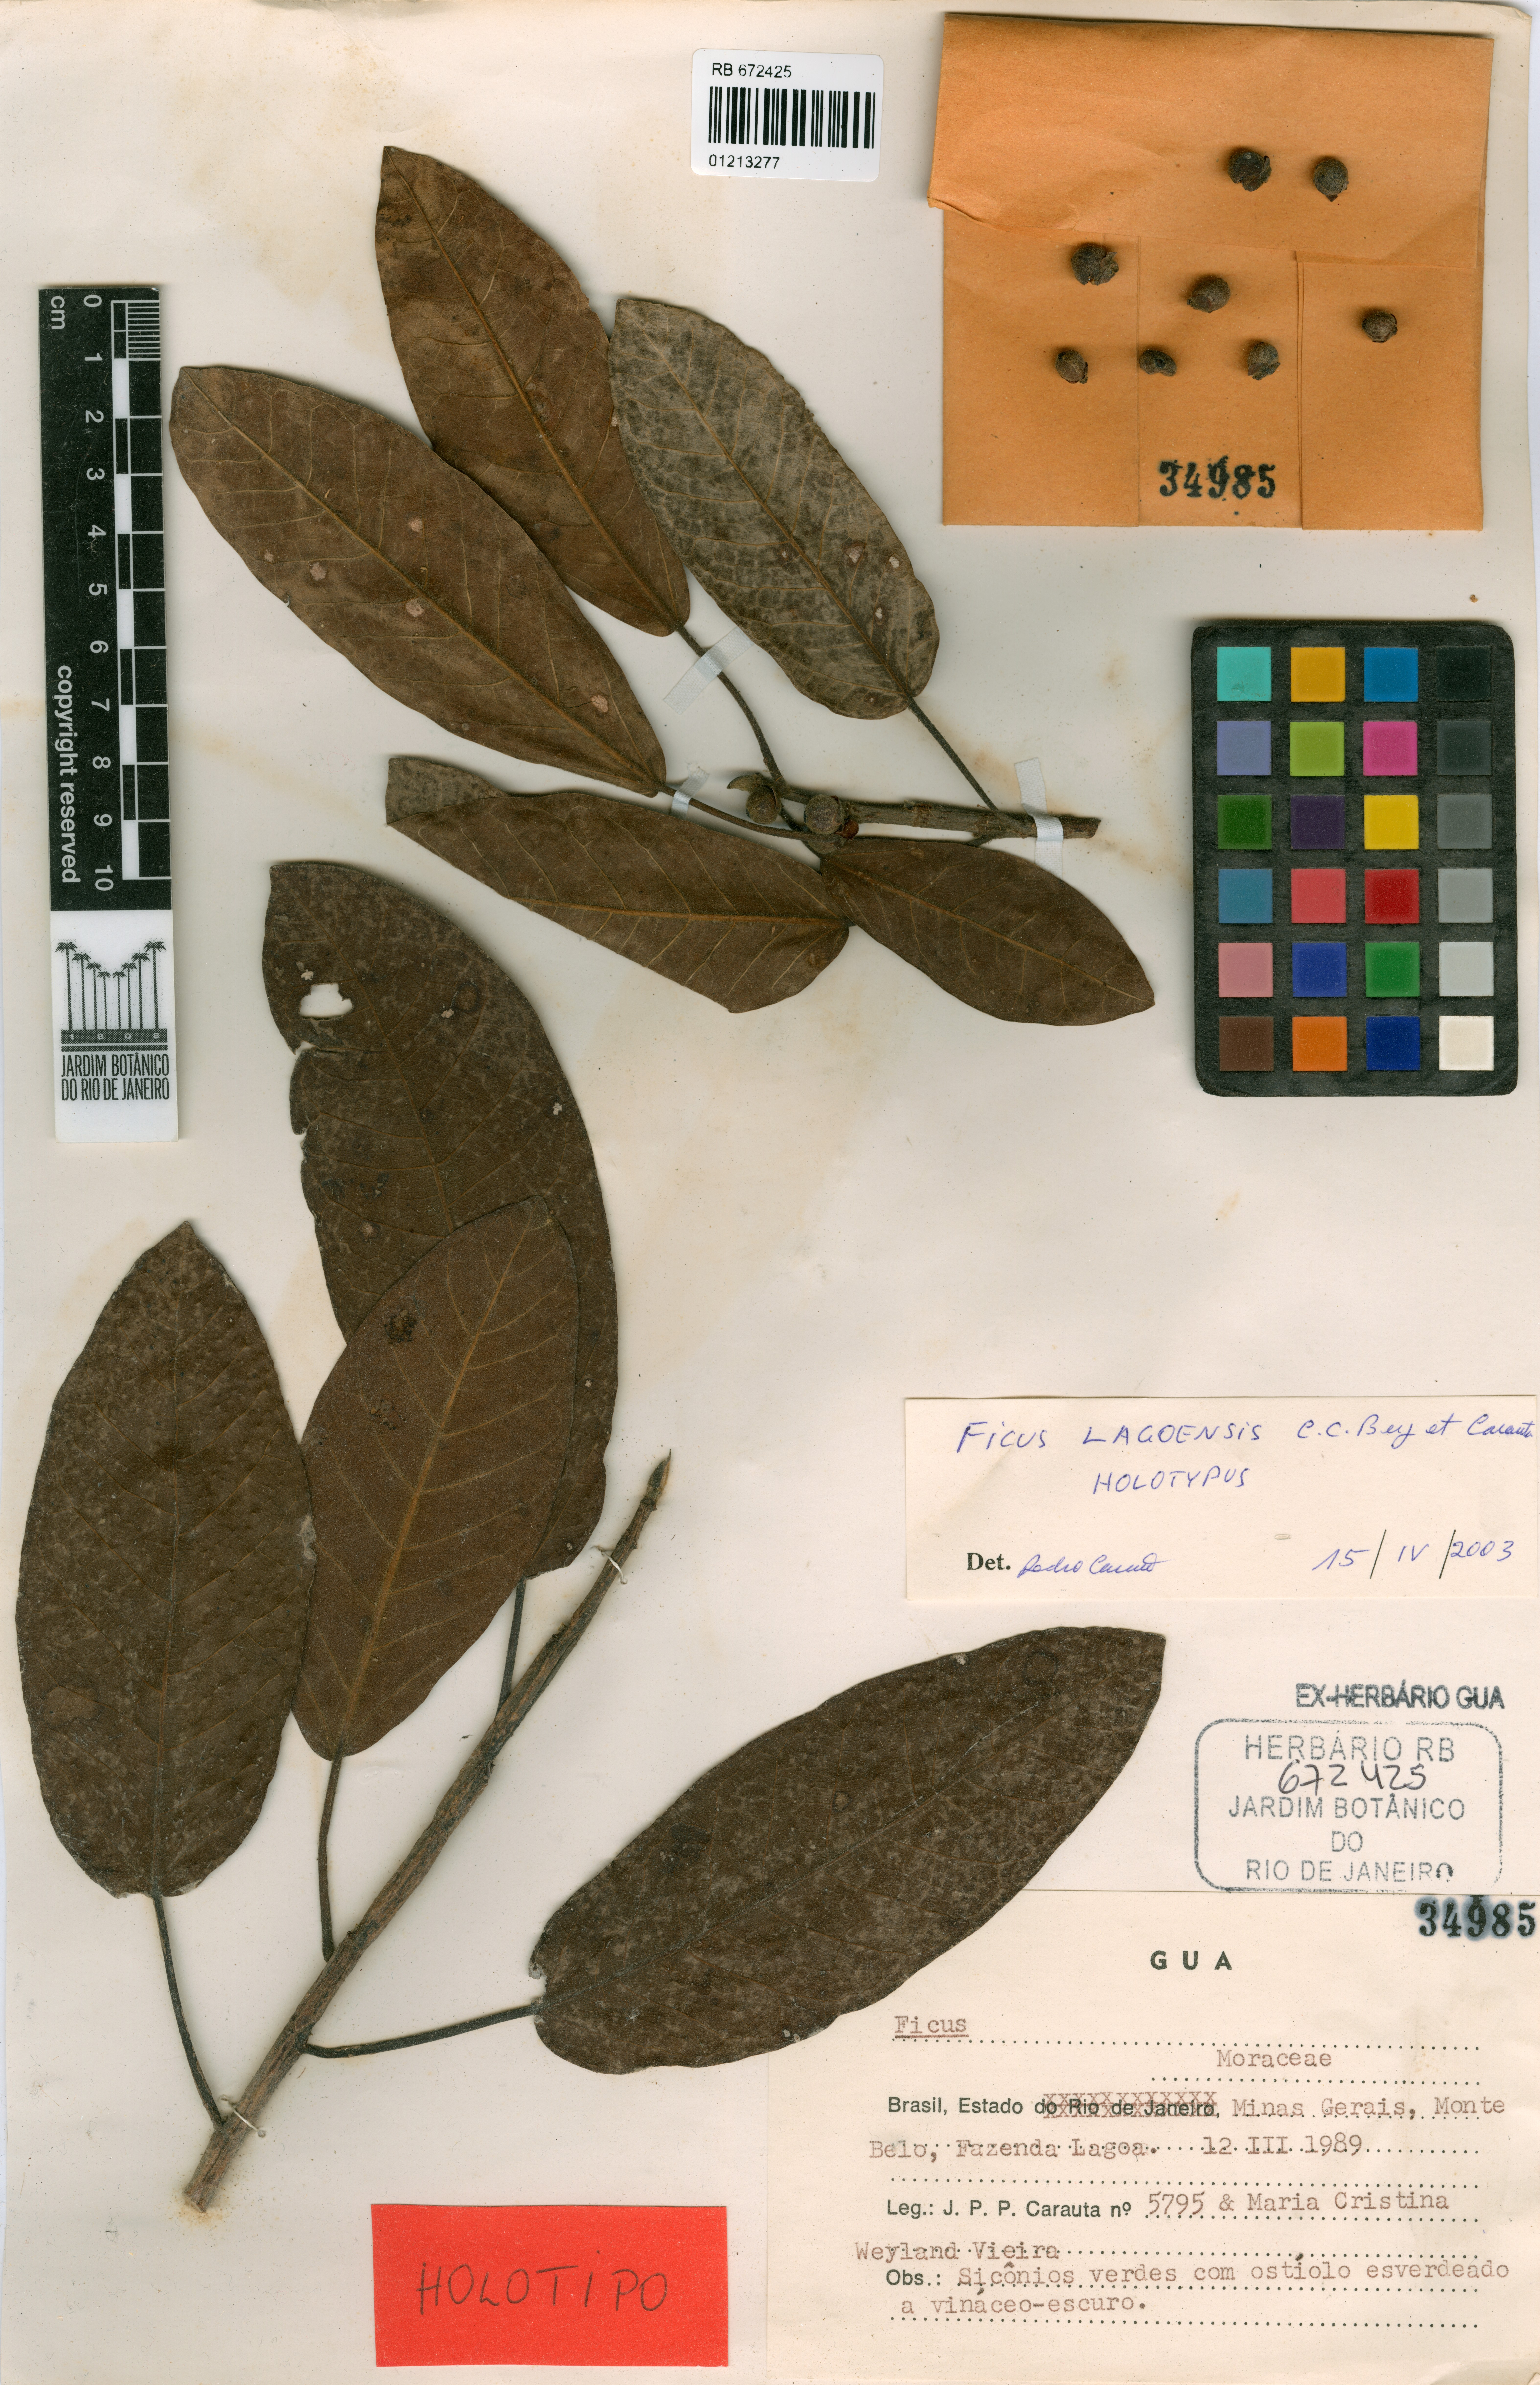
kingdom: Plantae
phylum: Tracheophyta
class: Magnoliopsida
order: Rosales
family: Moraceae
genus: Ficus
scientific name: Ficus lagoensis
